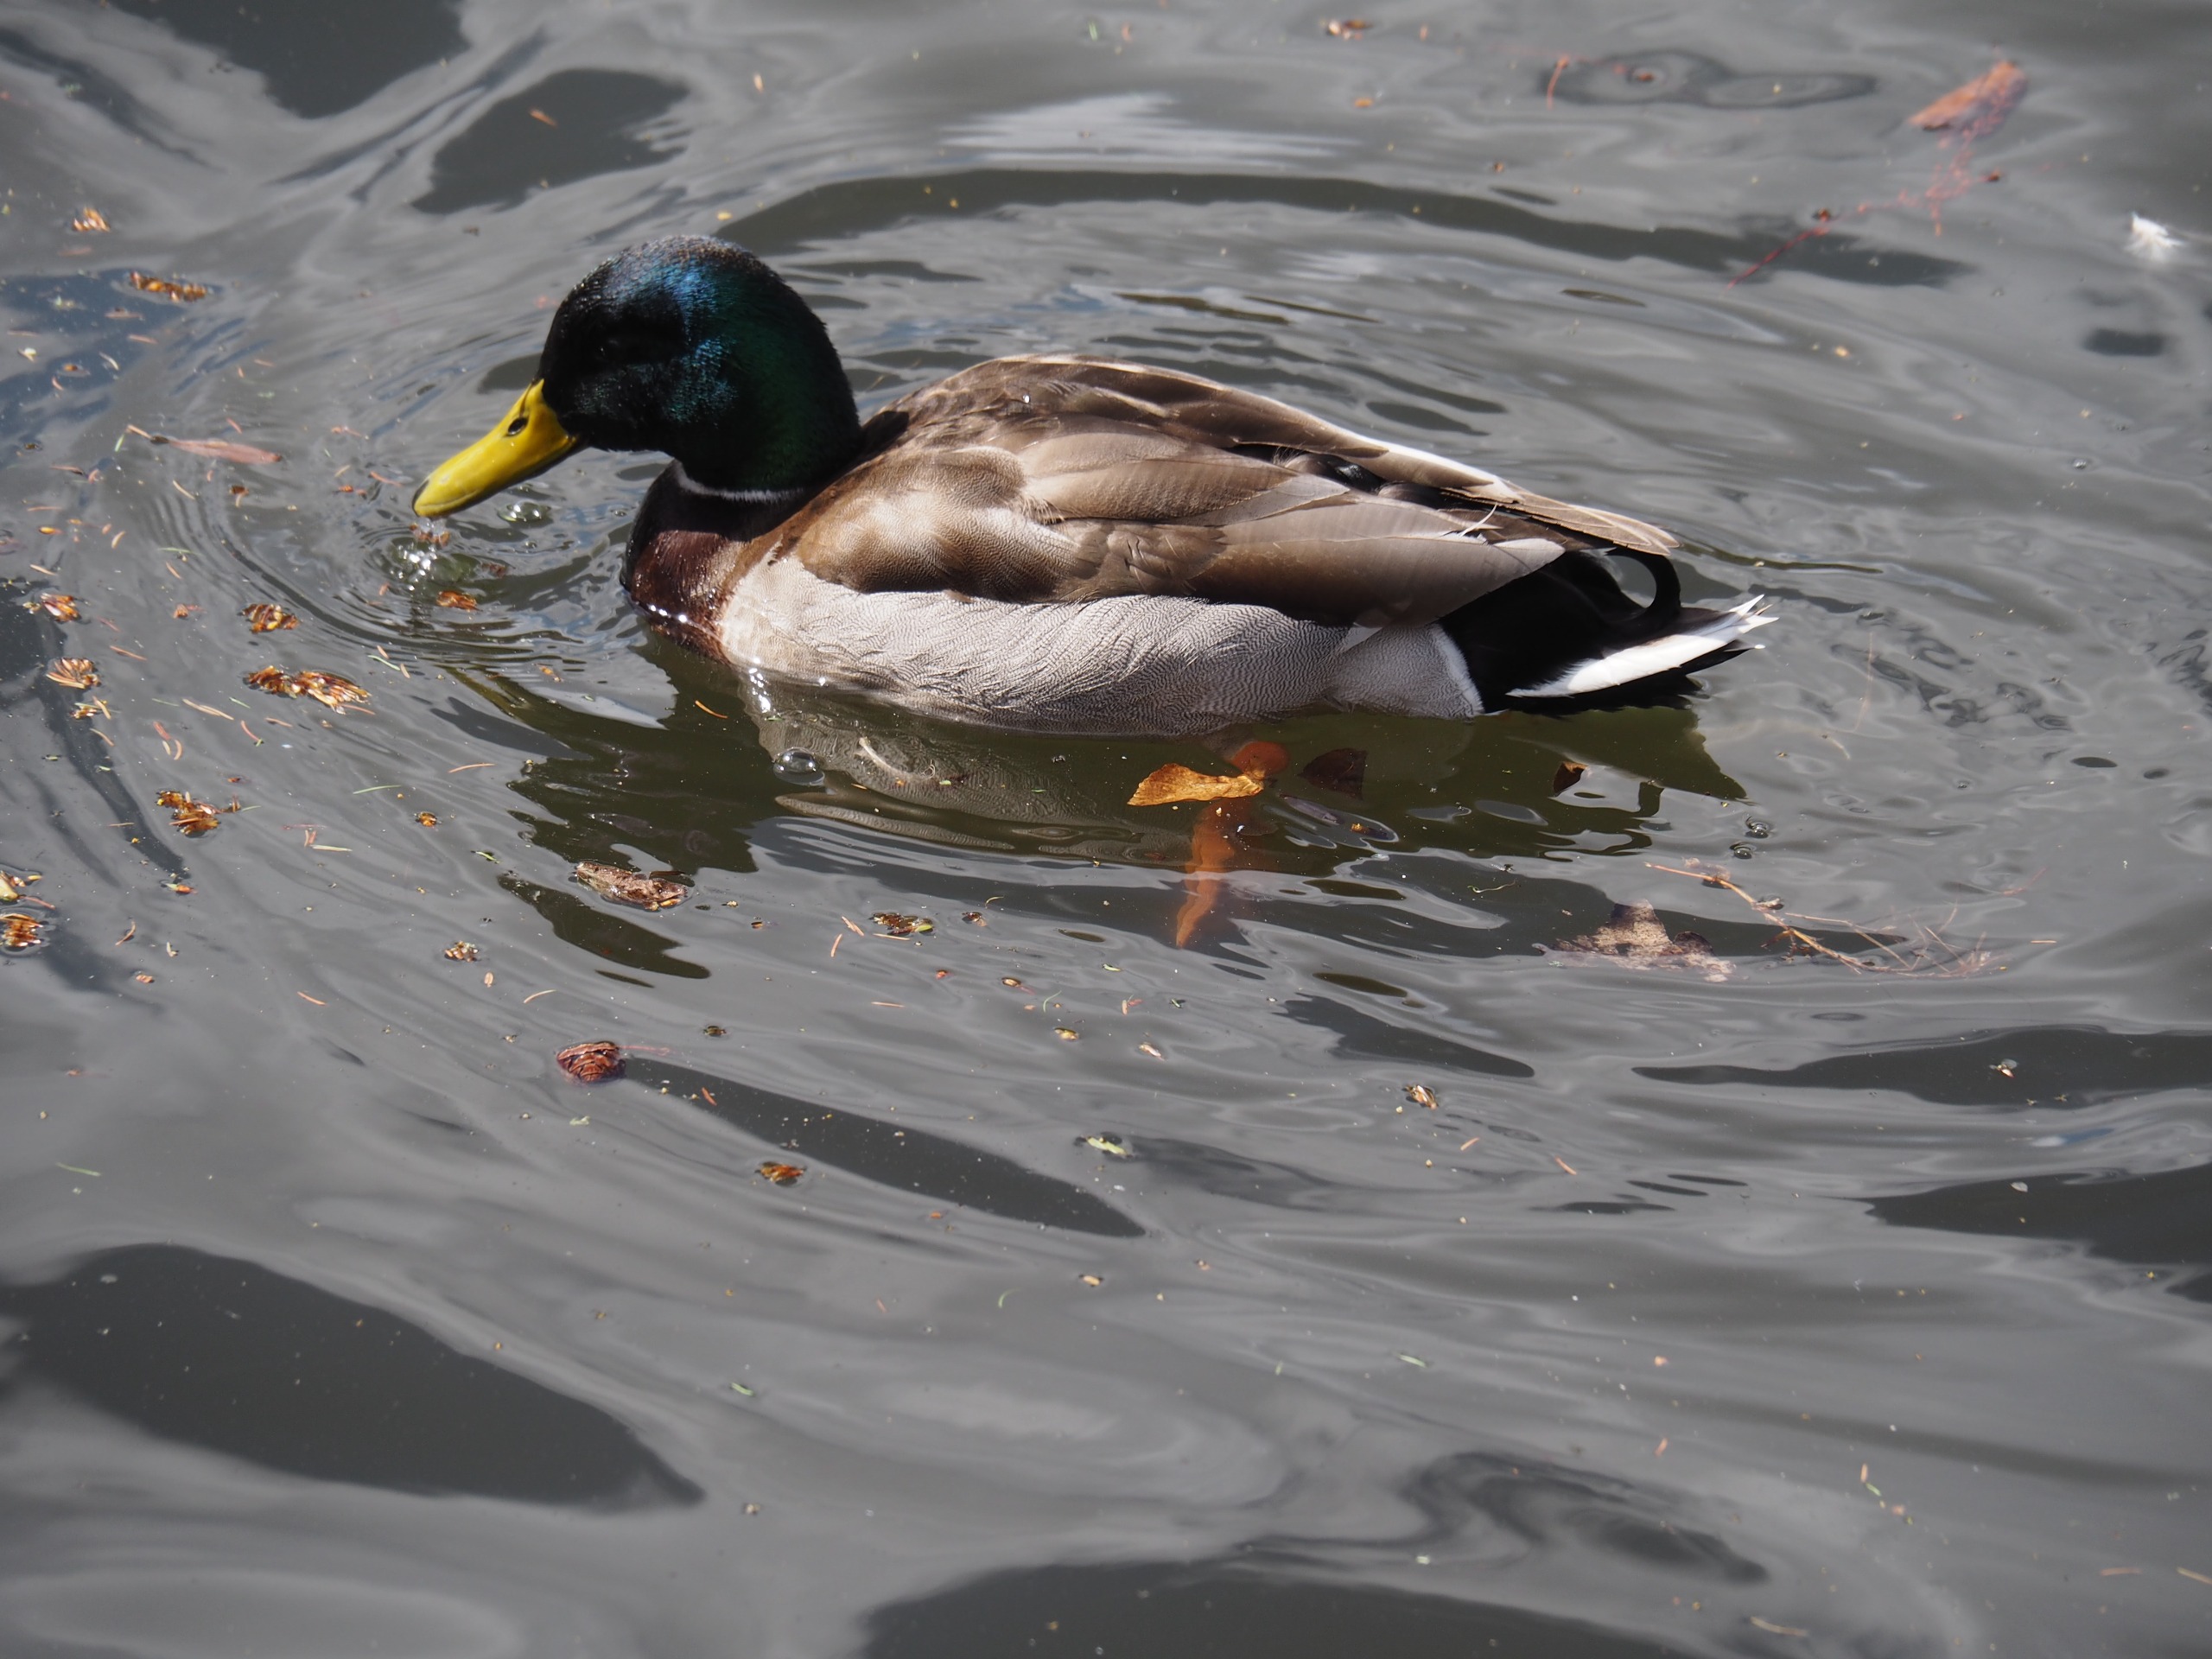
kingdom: Animalia
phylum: Chordata
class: Aves
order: Anseriformes
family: Anatidae
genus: Anas
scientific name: Anas platyrhynchos
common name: Gråand
